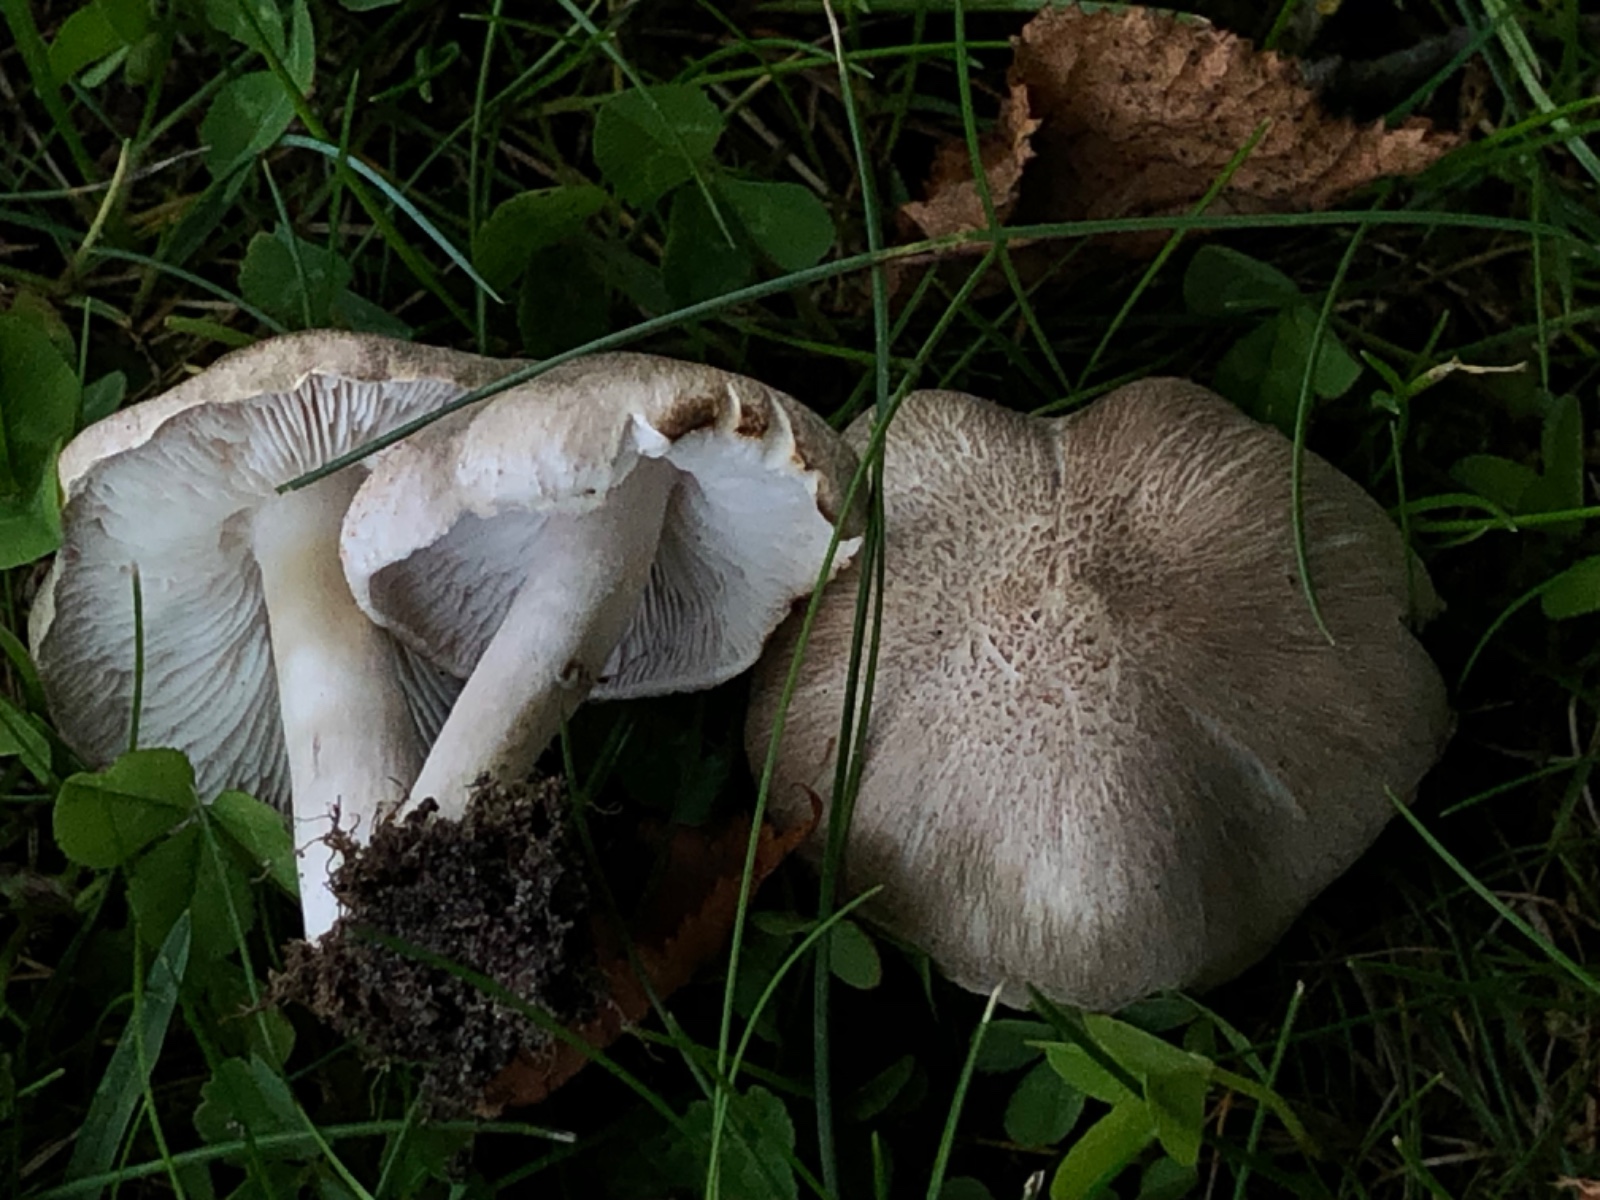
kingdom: Fungi
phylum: Basidiomycota
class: Agaricomycetes
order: Agaricales
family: Tricholomataceae
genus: Tricholoma
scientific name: Tricholoma argyraceum
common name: spids ridderhat
